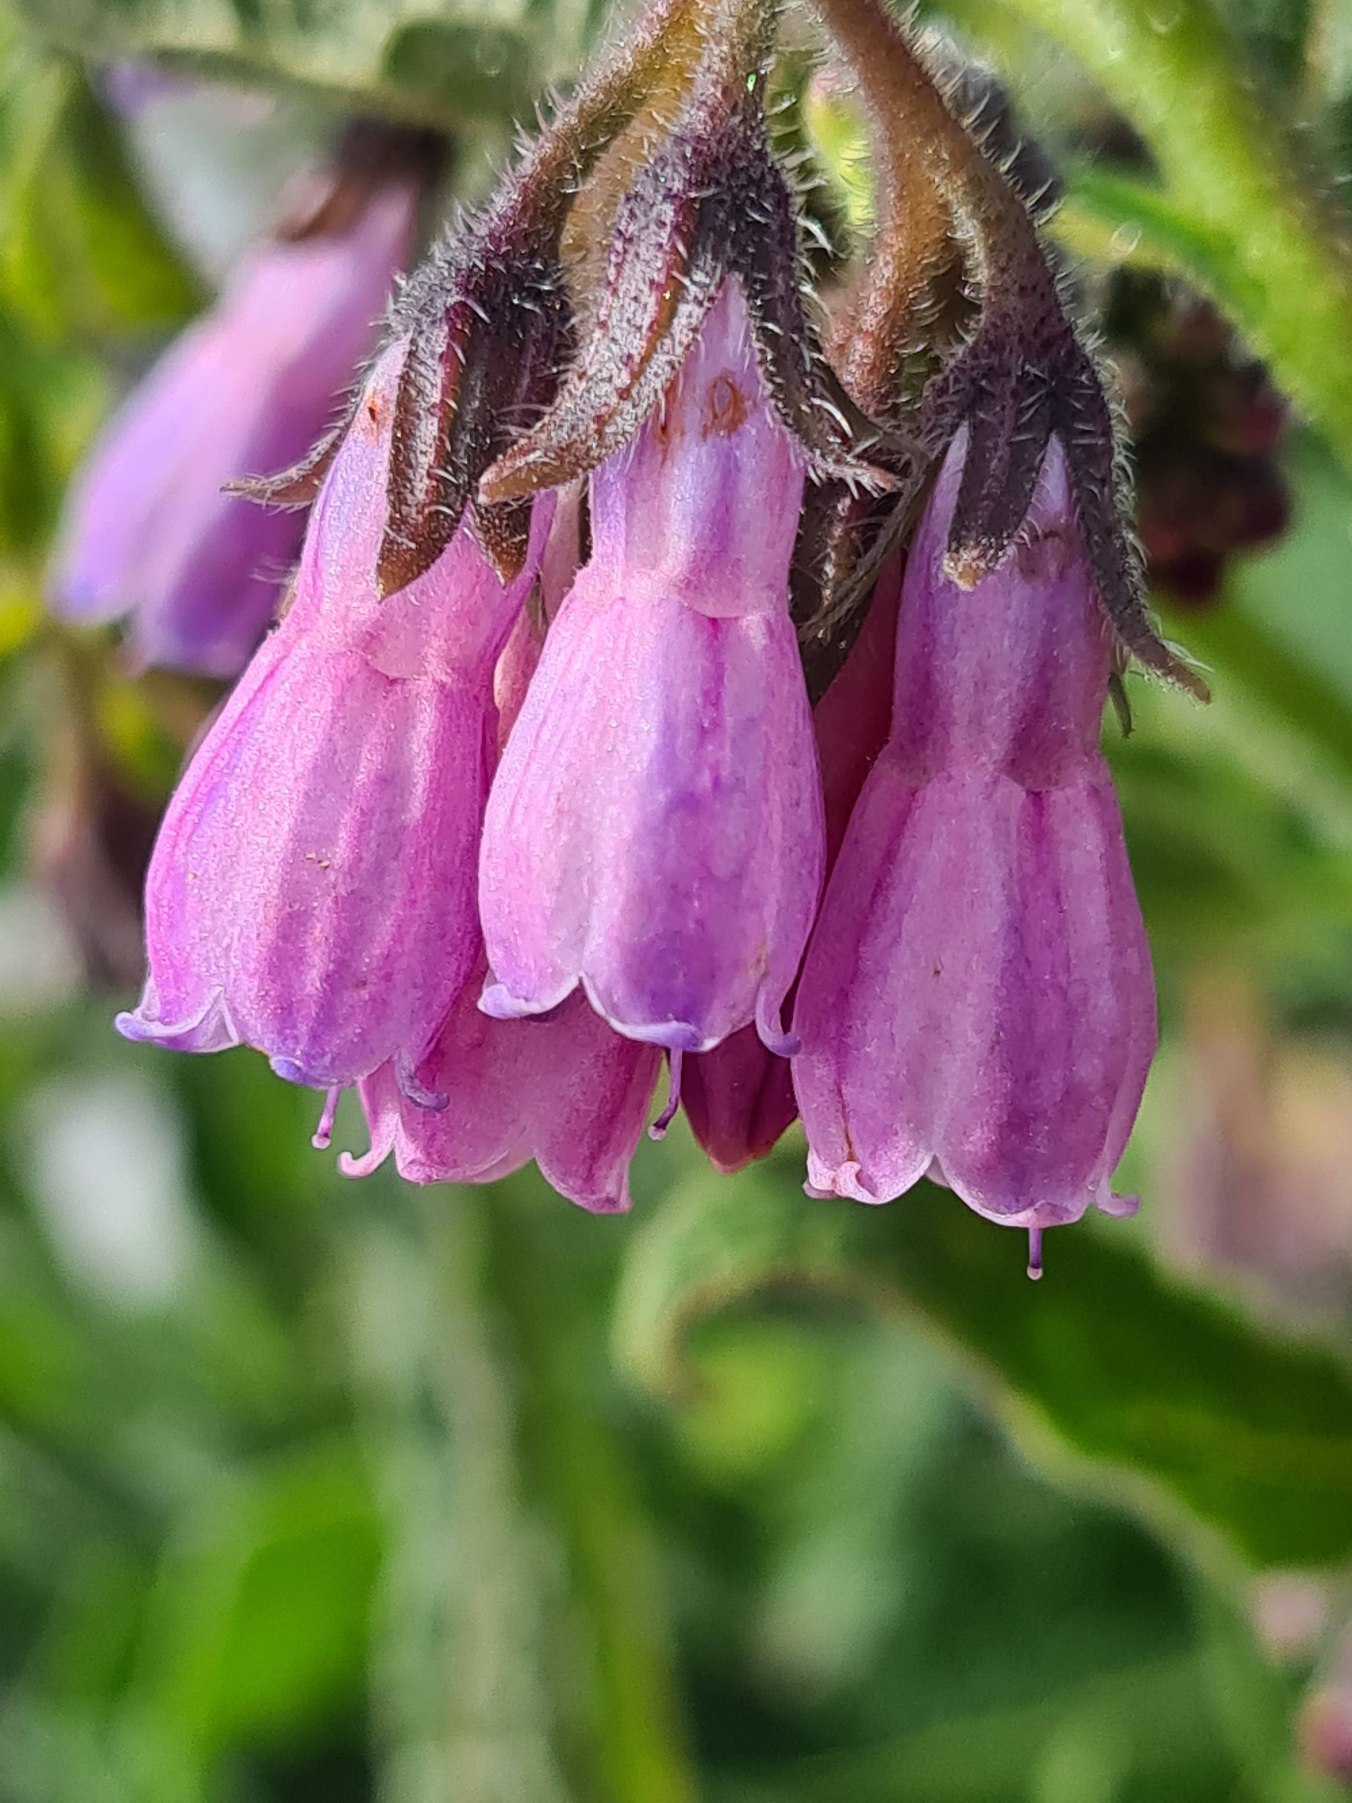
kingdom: Plantae
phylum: Tracheophyta
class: Magnoliopsida
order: Boraginales
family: Boraginaceae
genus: Symphytum
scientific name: Symphytum uplandicum
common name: Foder-kulsukker
